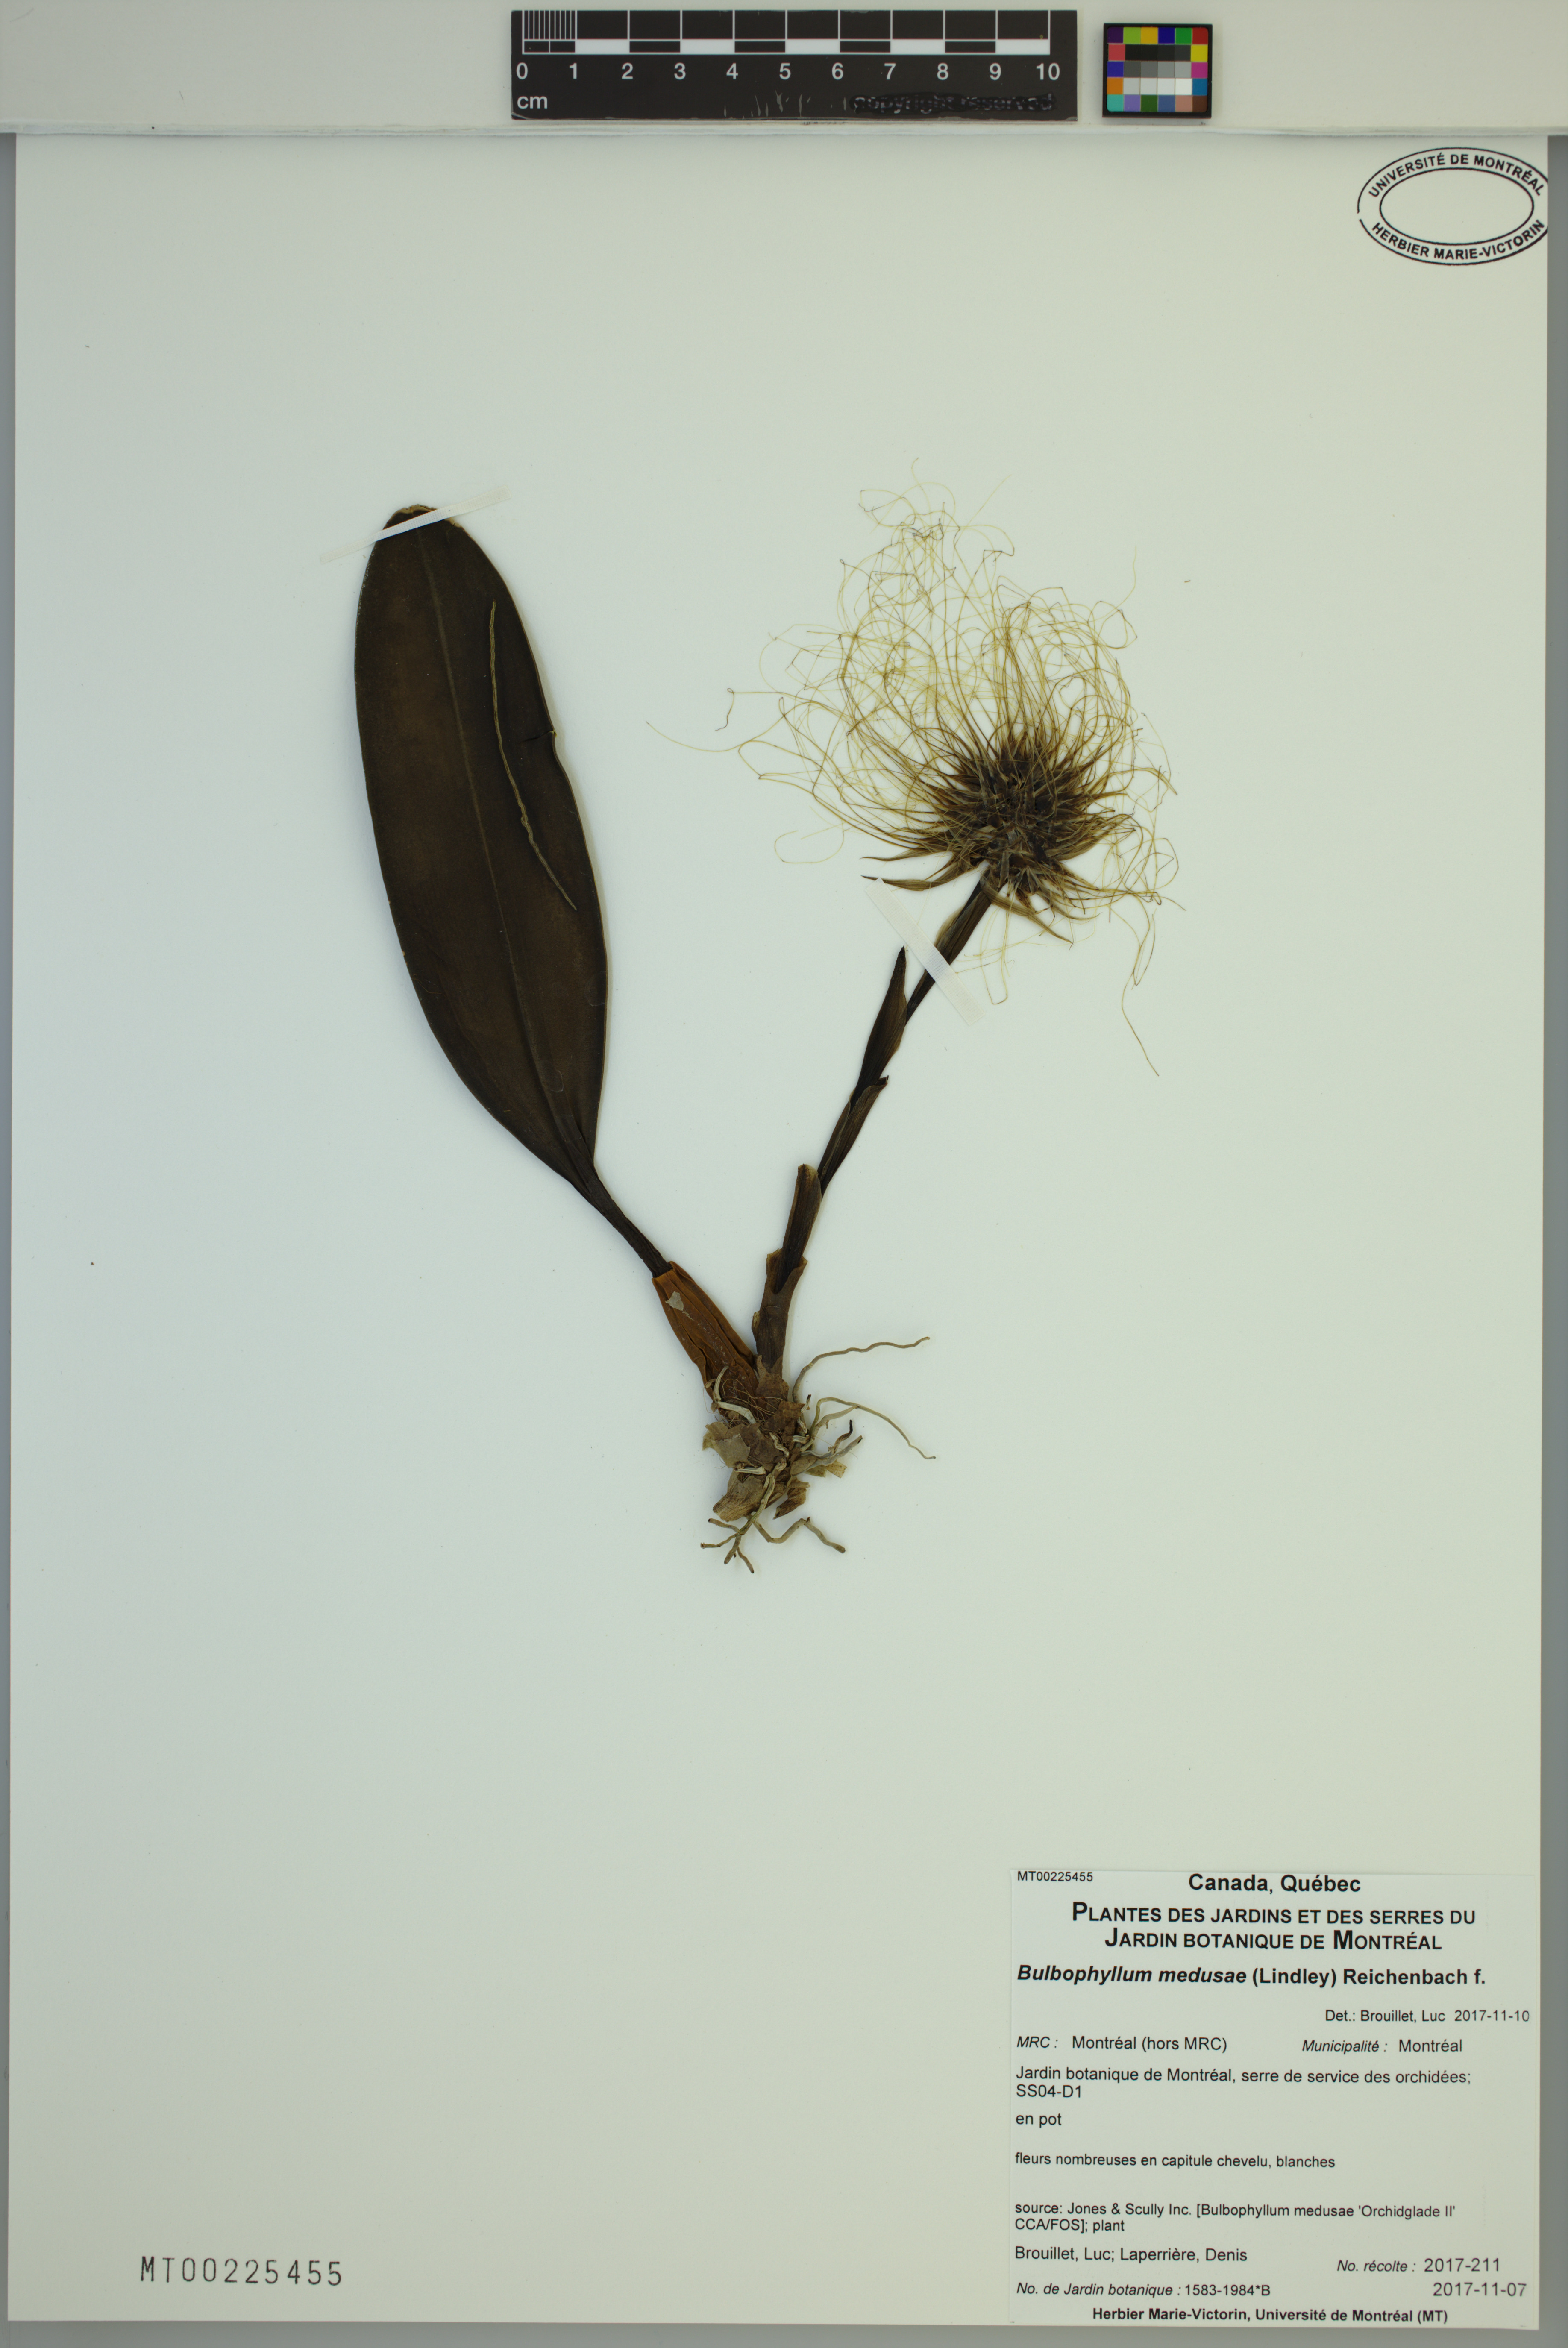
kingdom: Plantae
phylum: Tracheophyta
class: Liliopsida
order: Asparagales
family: Orchidaceae
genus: Bulbophyllum
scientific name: Bulbophyllum medusae
